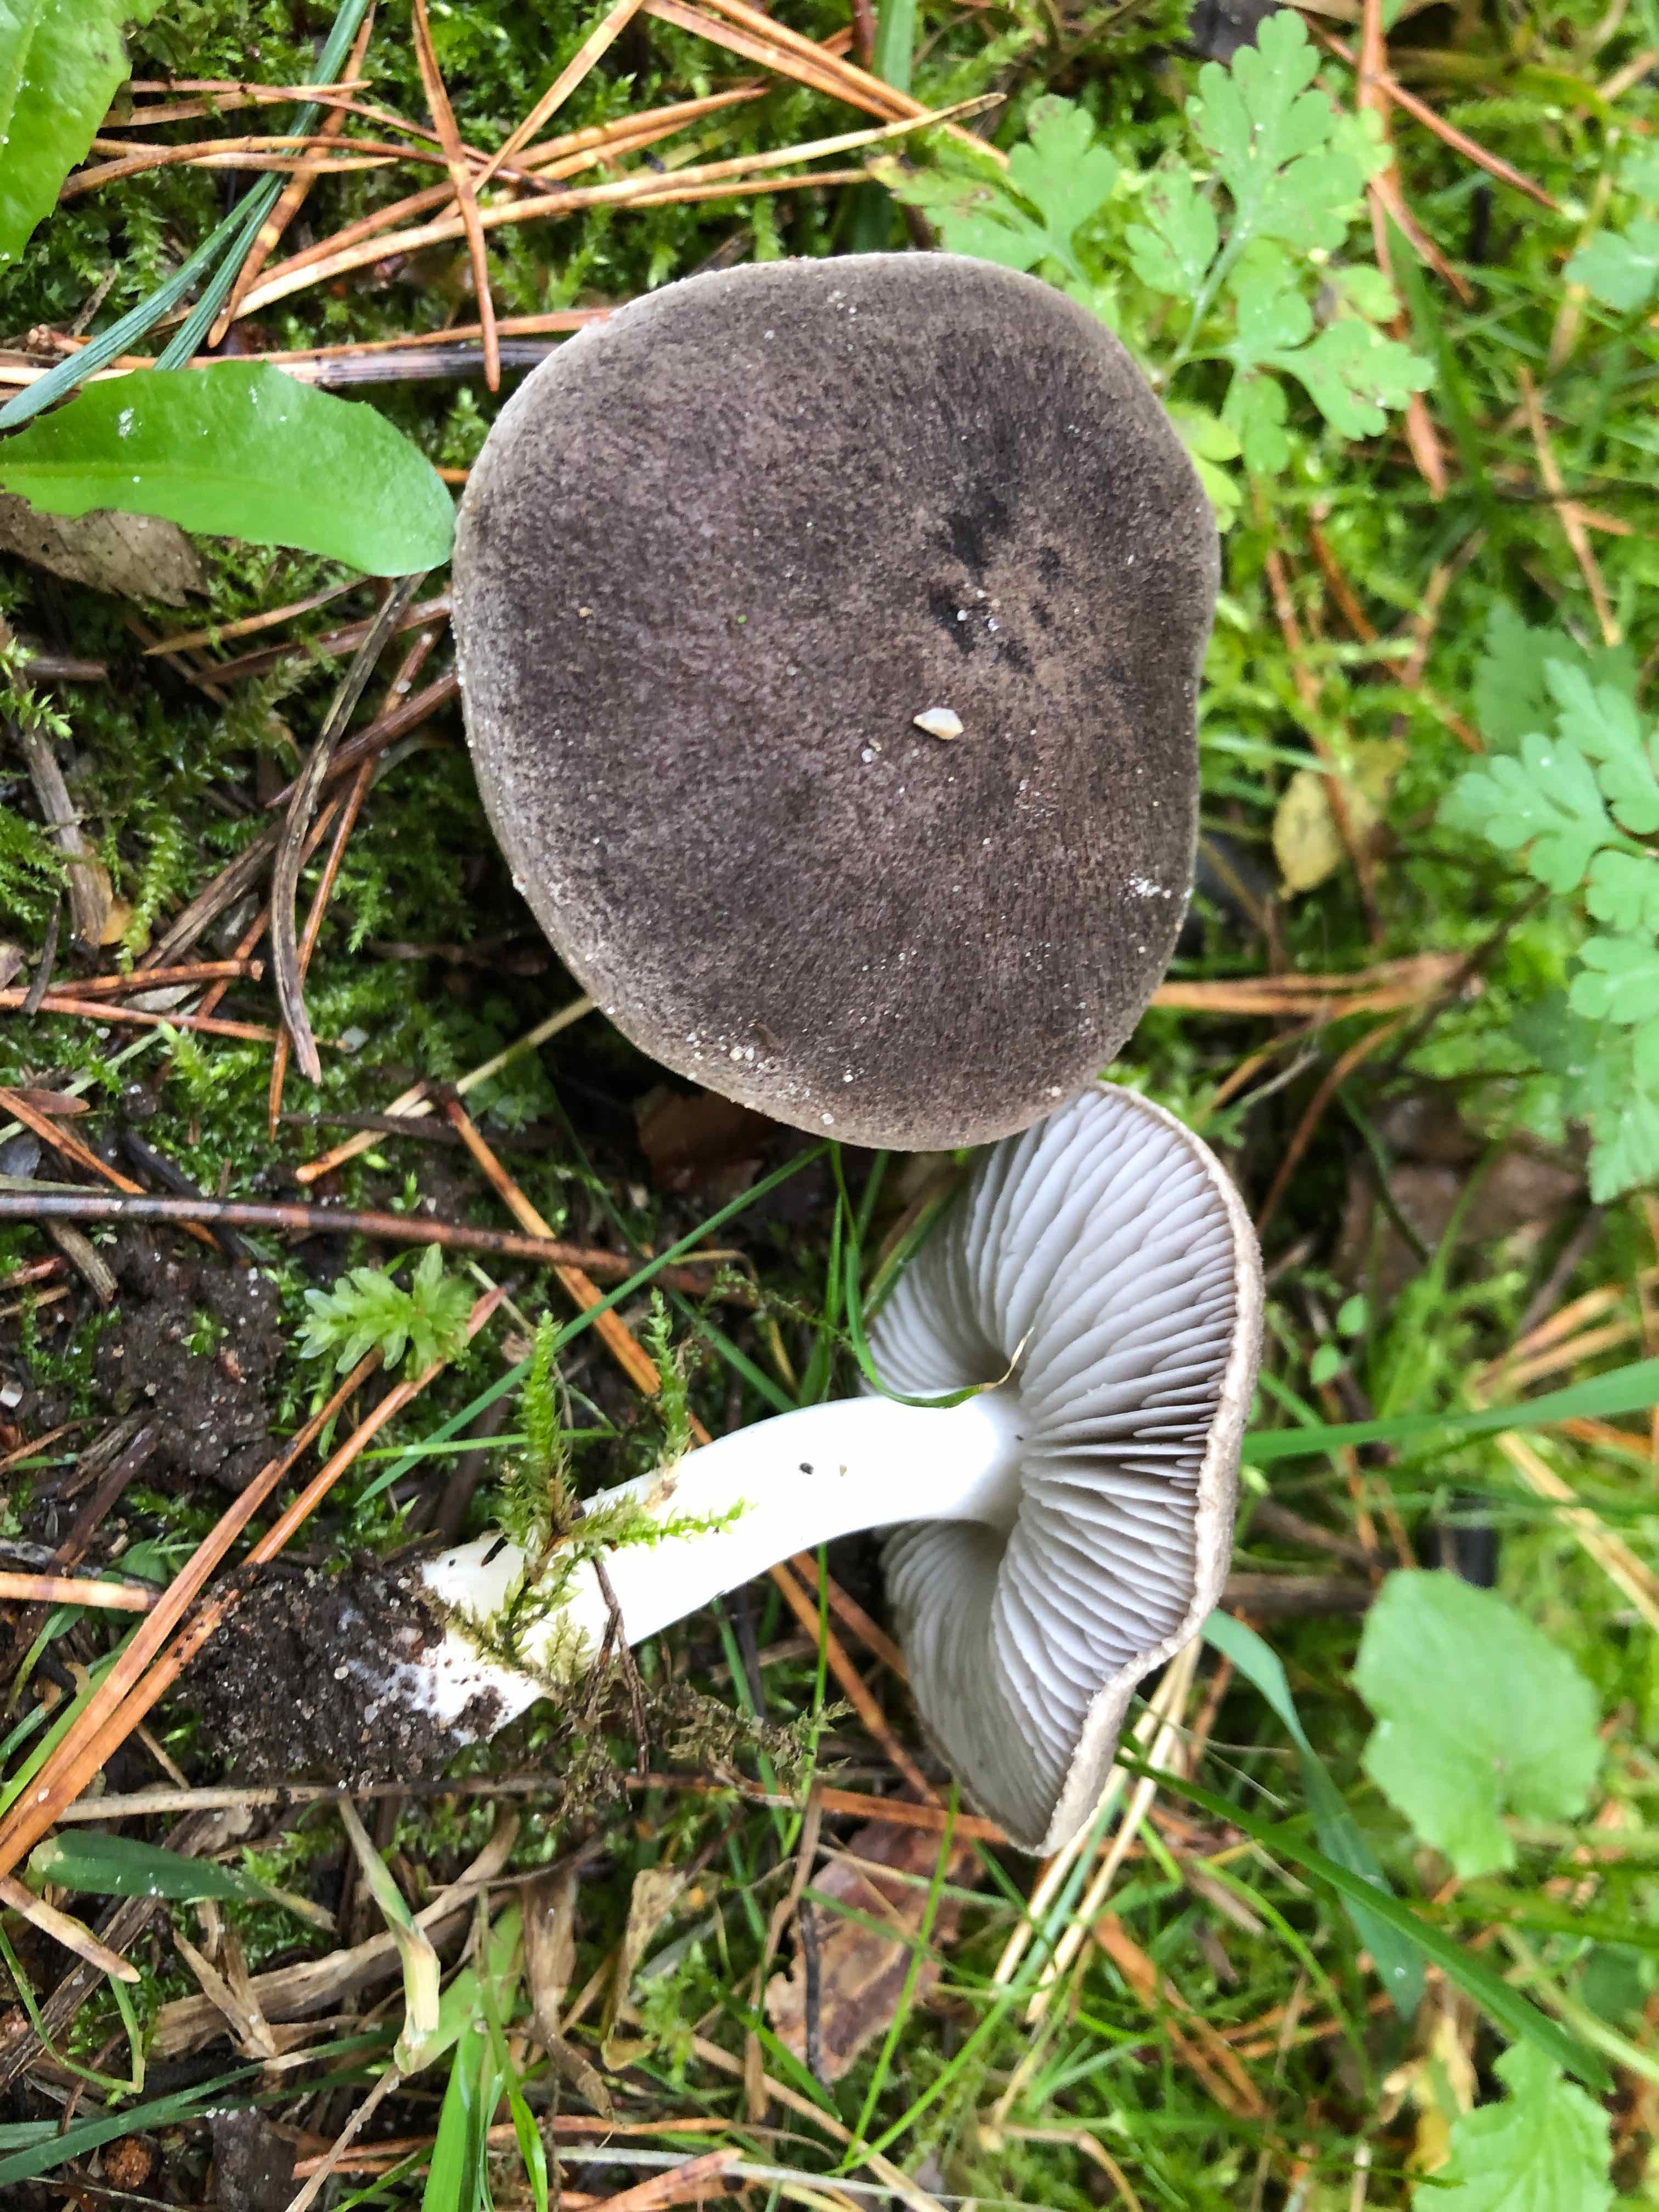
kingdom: Fungi
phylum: Basidiomycota
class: Agaricomycetes
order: Agaricales
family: Tricholomataceae
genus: Tricholoma
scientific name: Tricholoma terreum
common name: jordfarvet ridderhat
